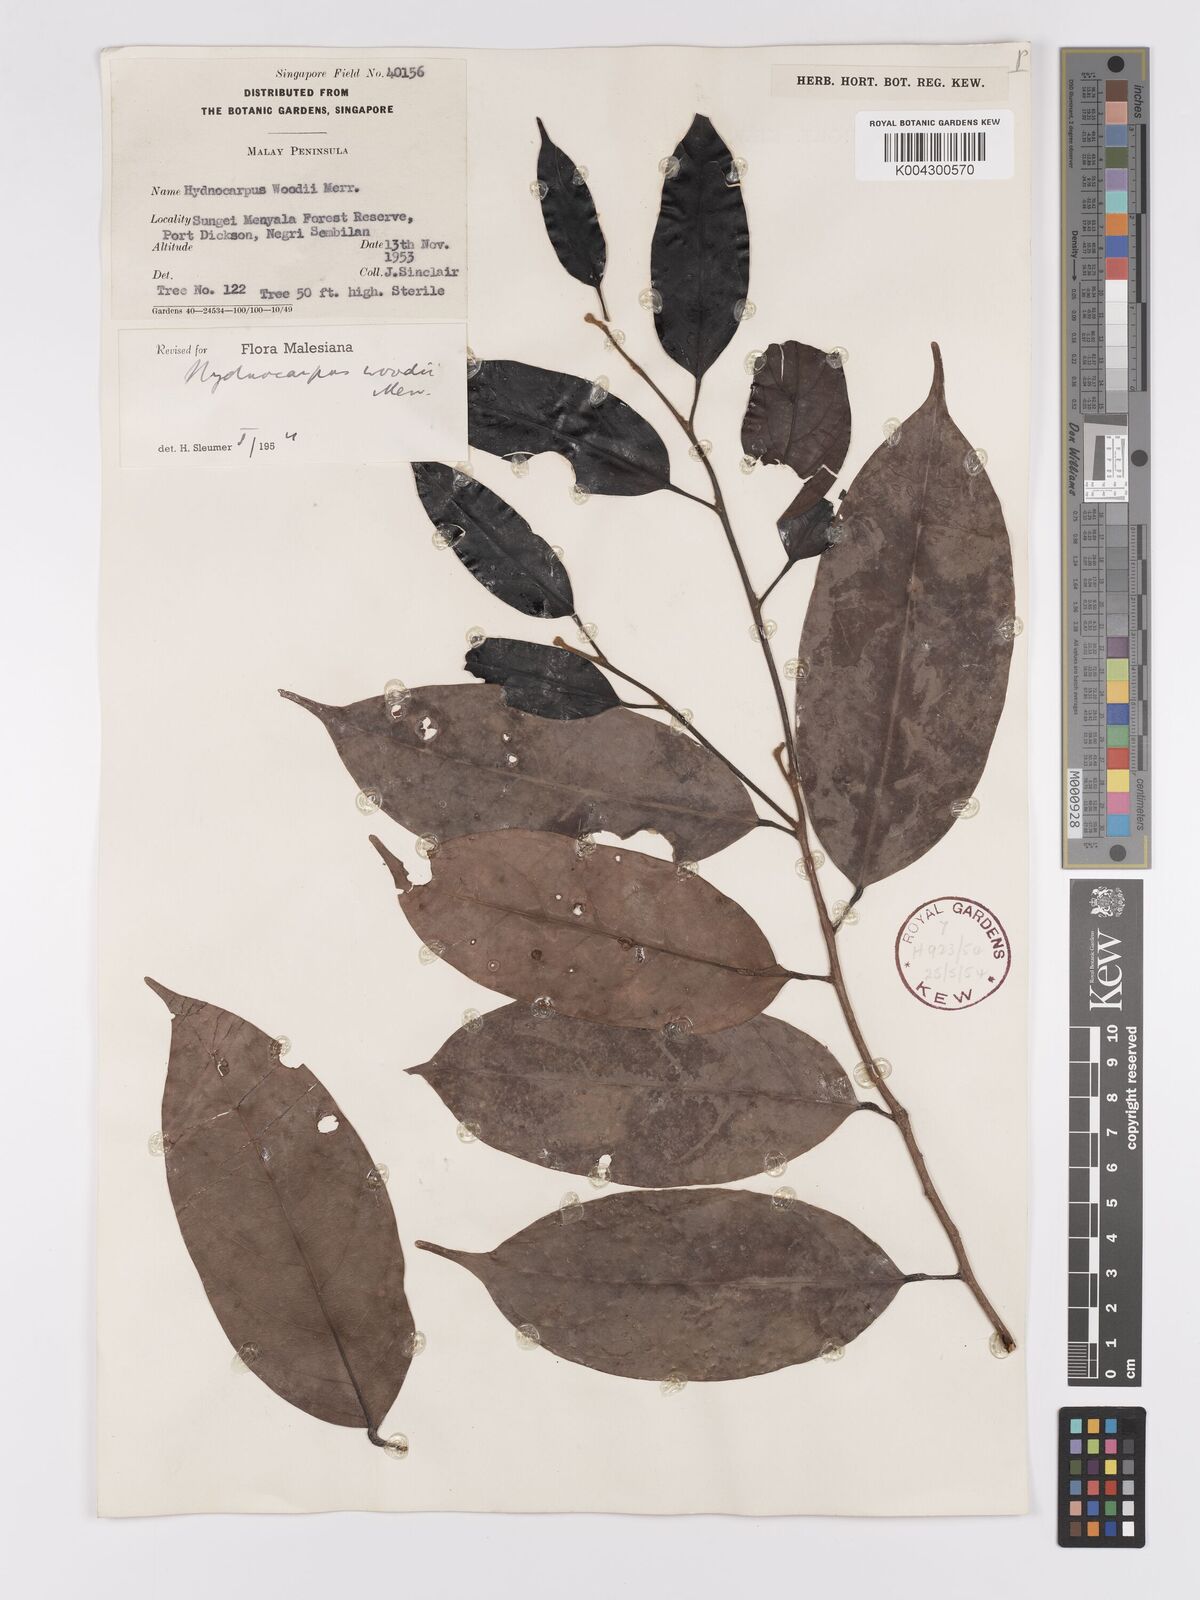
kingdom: Plantae
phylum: Tracheophyta
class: Magnoliopsida
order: Malpighiales
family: Achariaceae
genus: Hydnocarpus
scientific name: Hydnocarpus woodii
